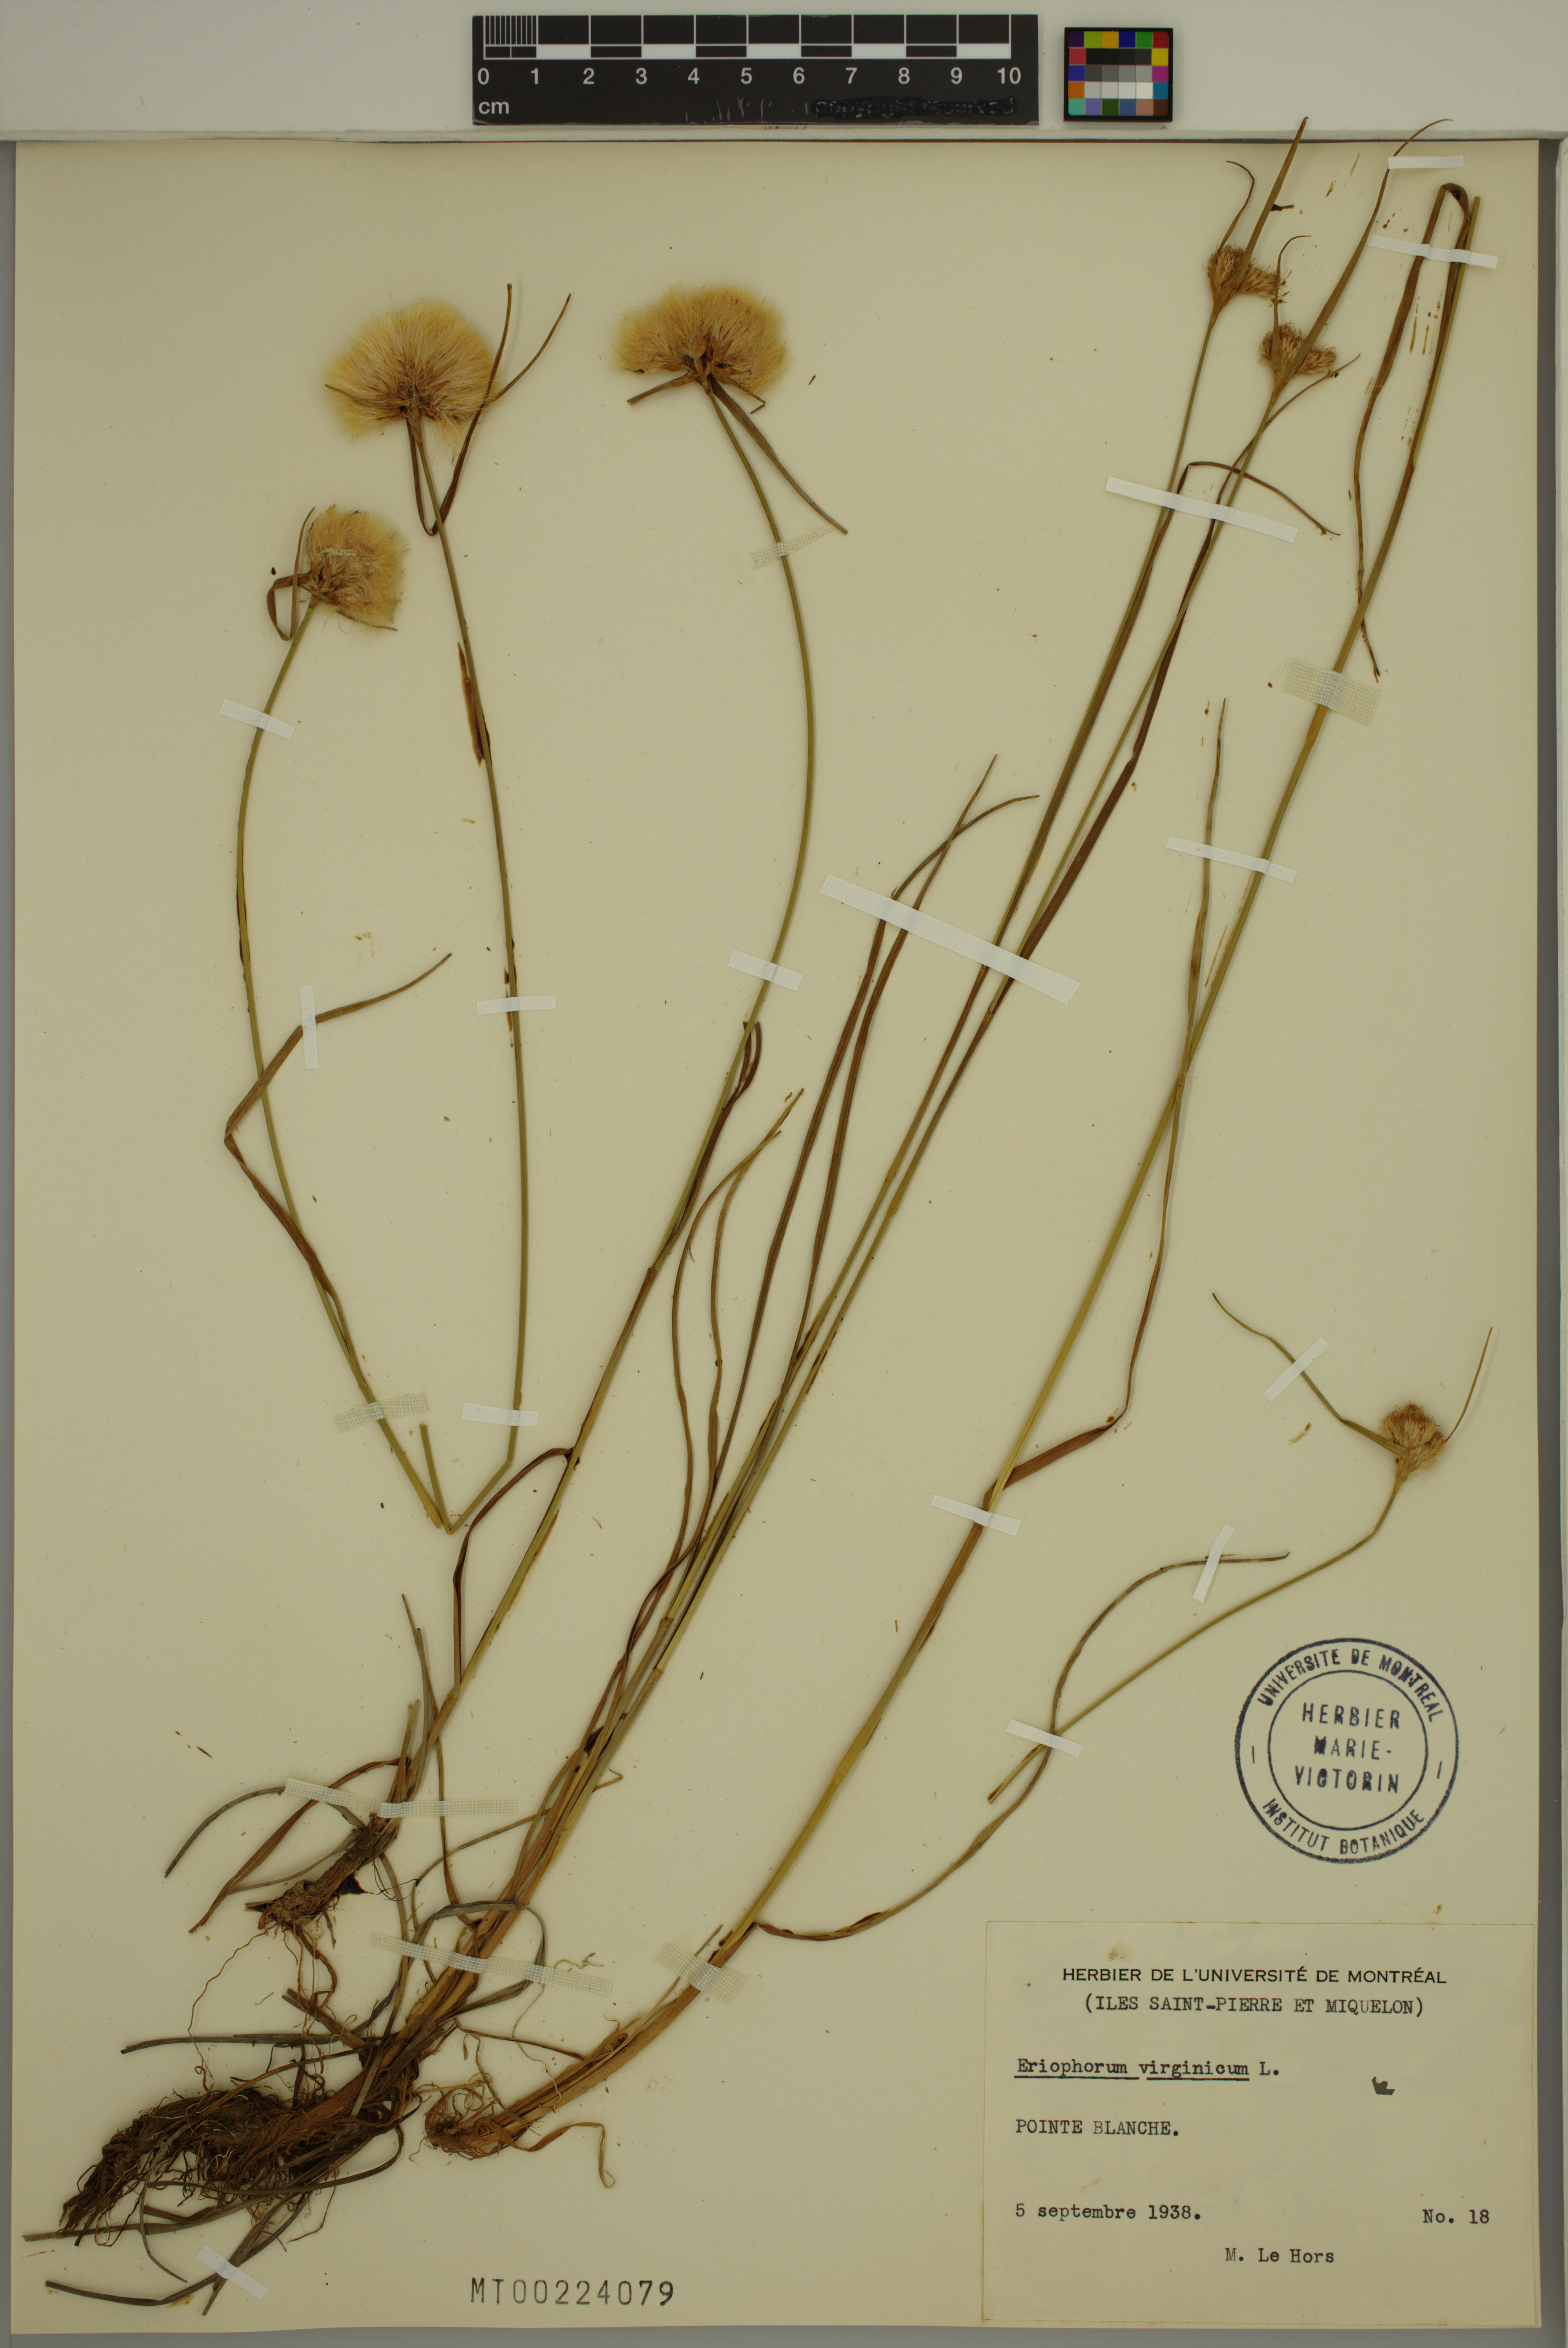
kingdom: Plantae
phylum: Tracheophyta
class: Liliopsida
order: Poales
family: Cyperaceae
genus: Eriophorum
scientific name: Eriophorum virginicum
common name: Tawny cottongrass
